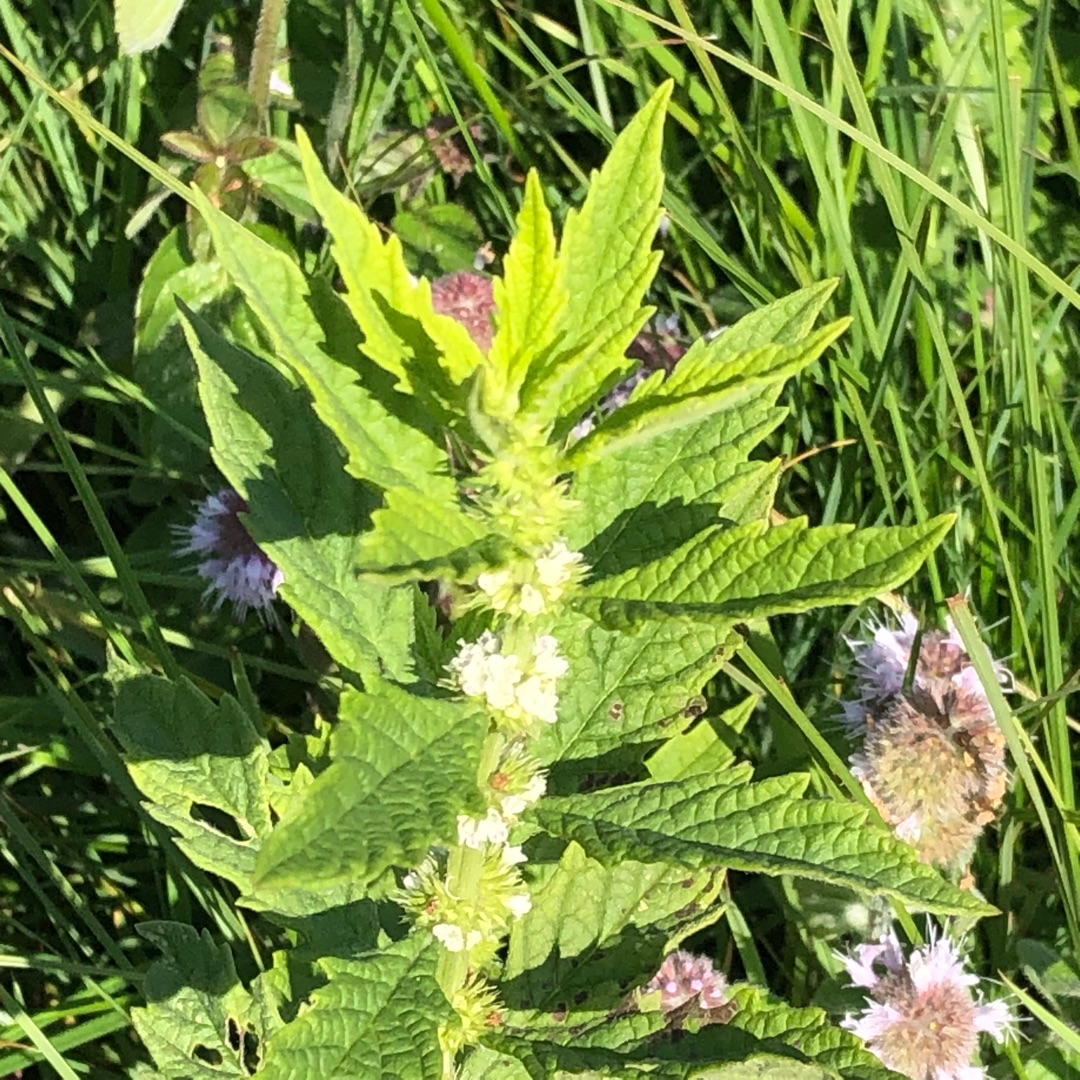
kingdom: Plantae
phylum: Tracheophyta
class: Magnoliopsida
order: Lamiales
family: Lamiaceae
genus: Lycopus
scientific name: Lycopus europaeus
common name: Sværtevæld
